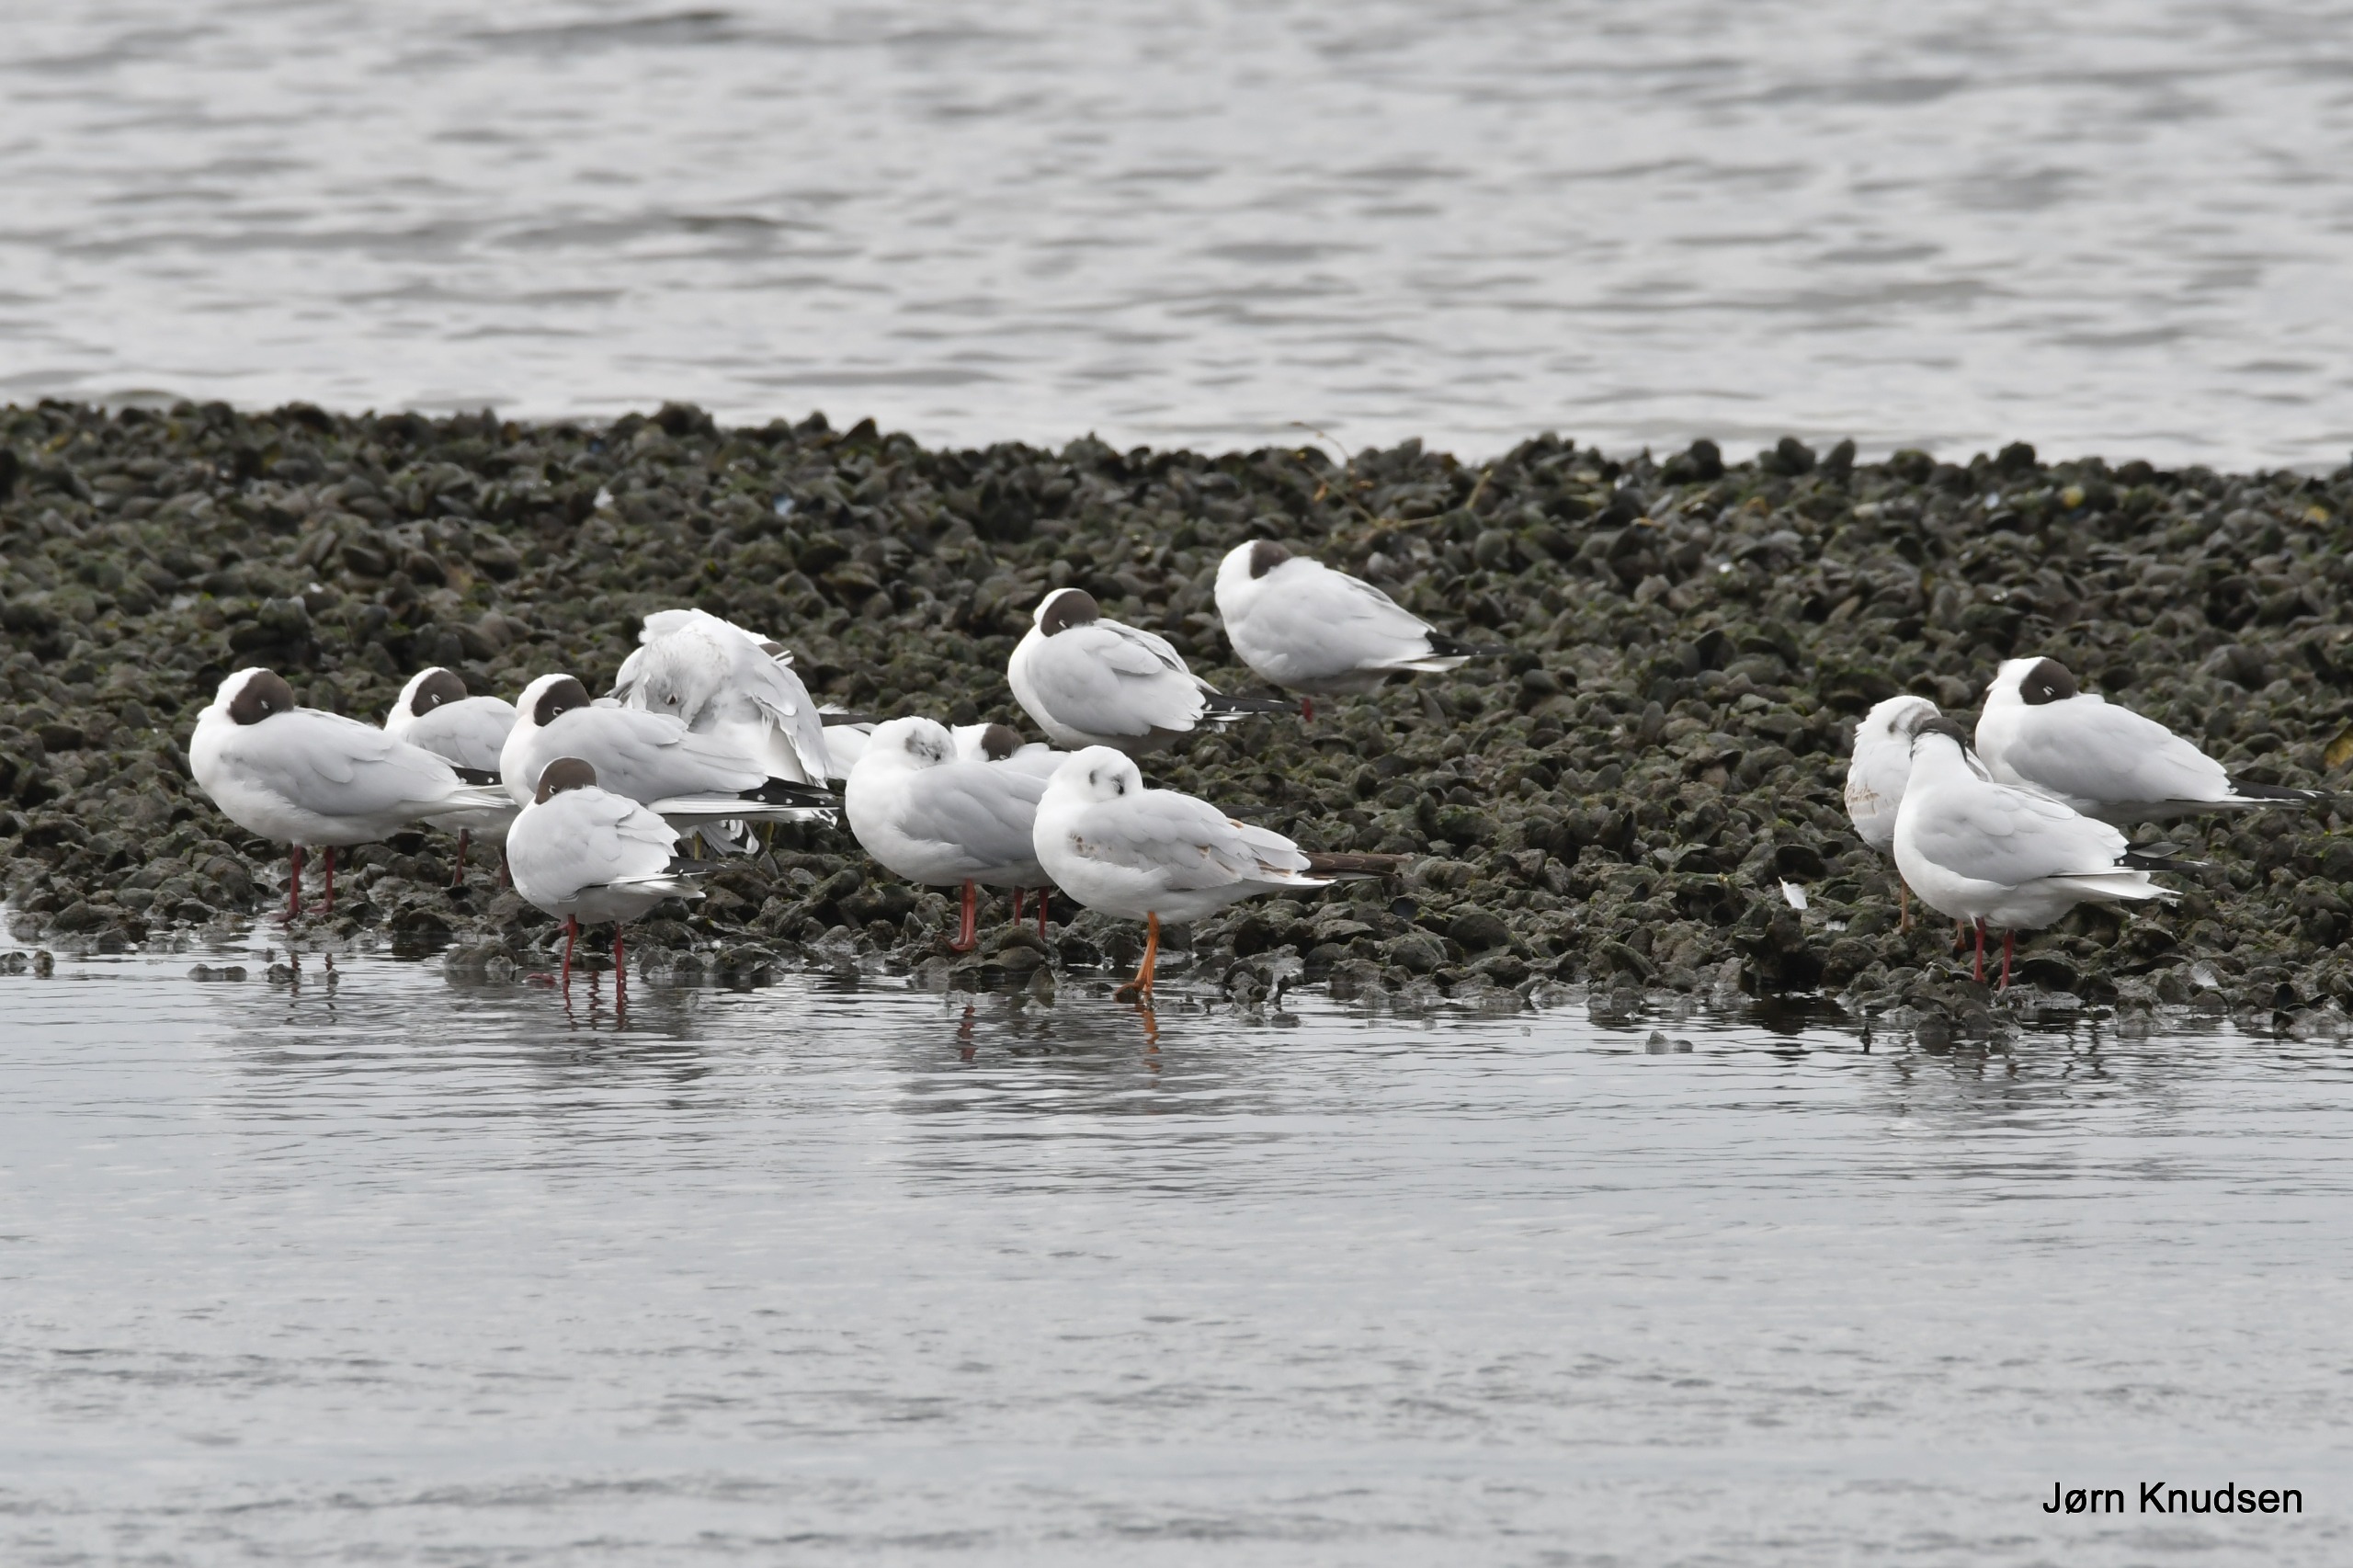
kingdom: Animalia
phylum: Chordata
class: Aves
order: Charadriiformes
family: Laridae
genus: Chroicocephalus
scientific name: Chroicocephalus ridibundus
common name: Hættemåge
